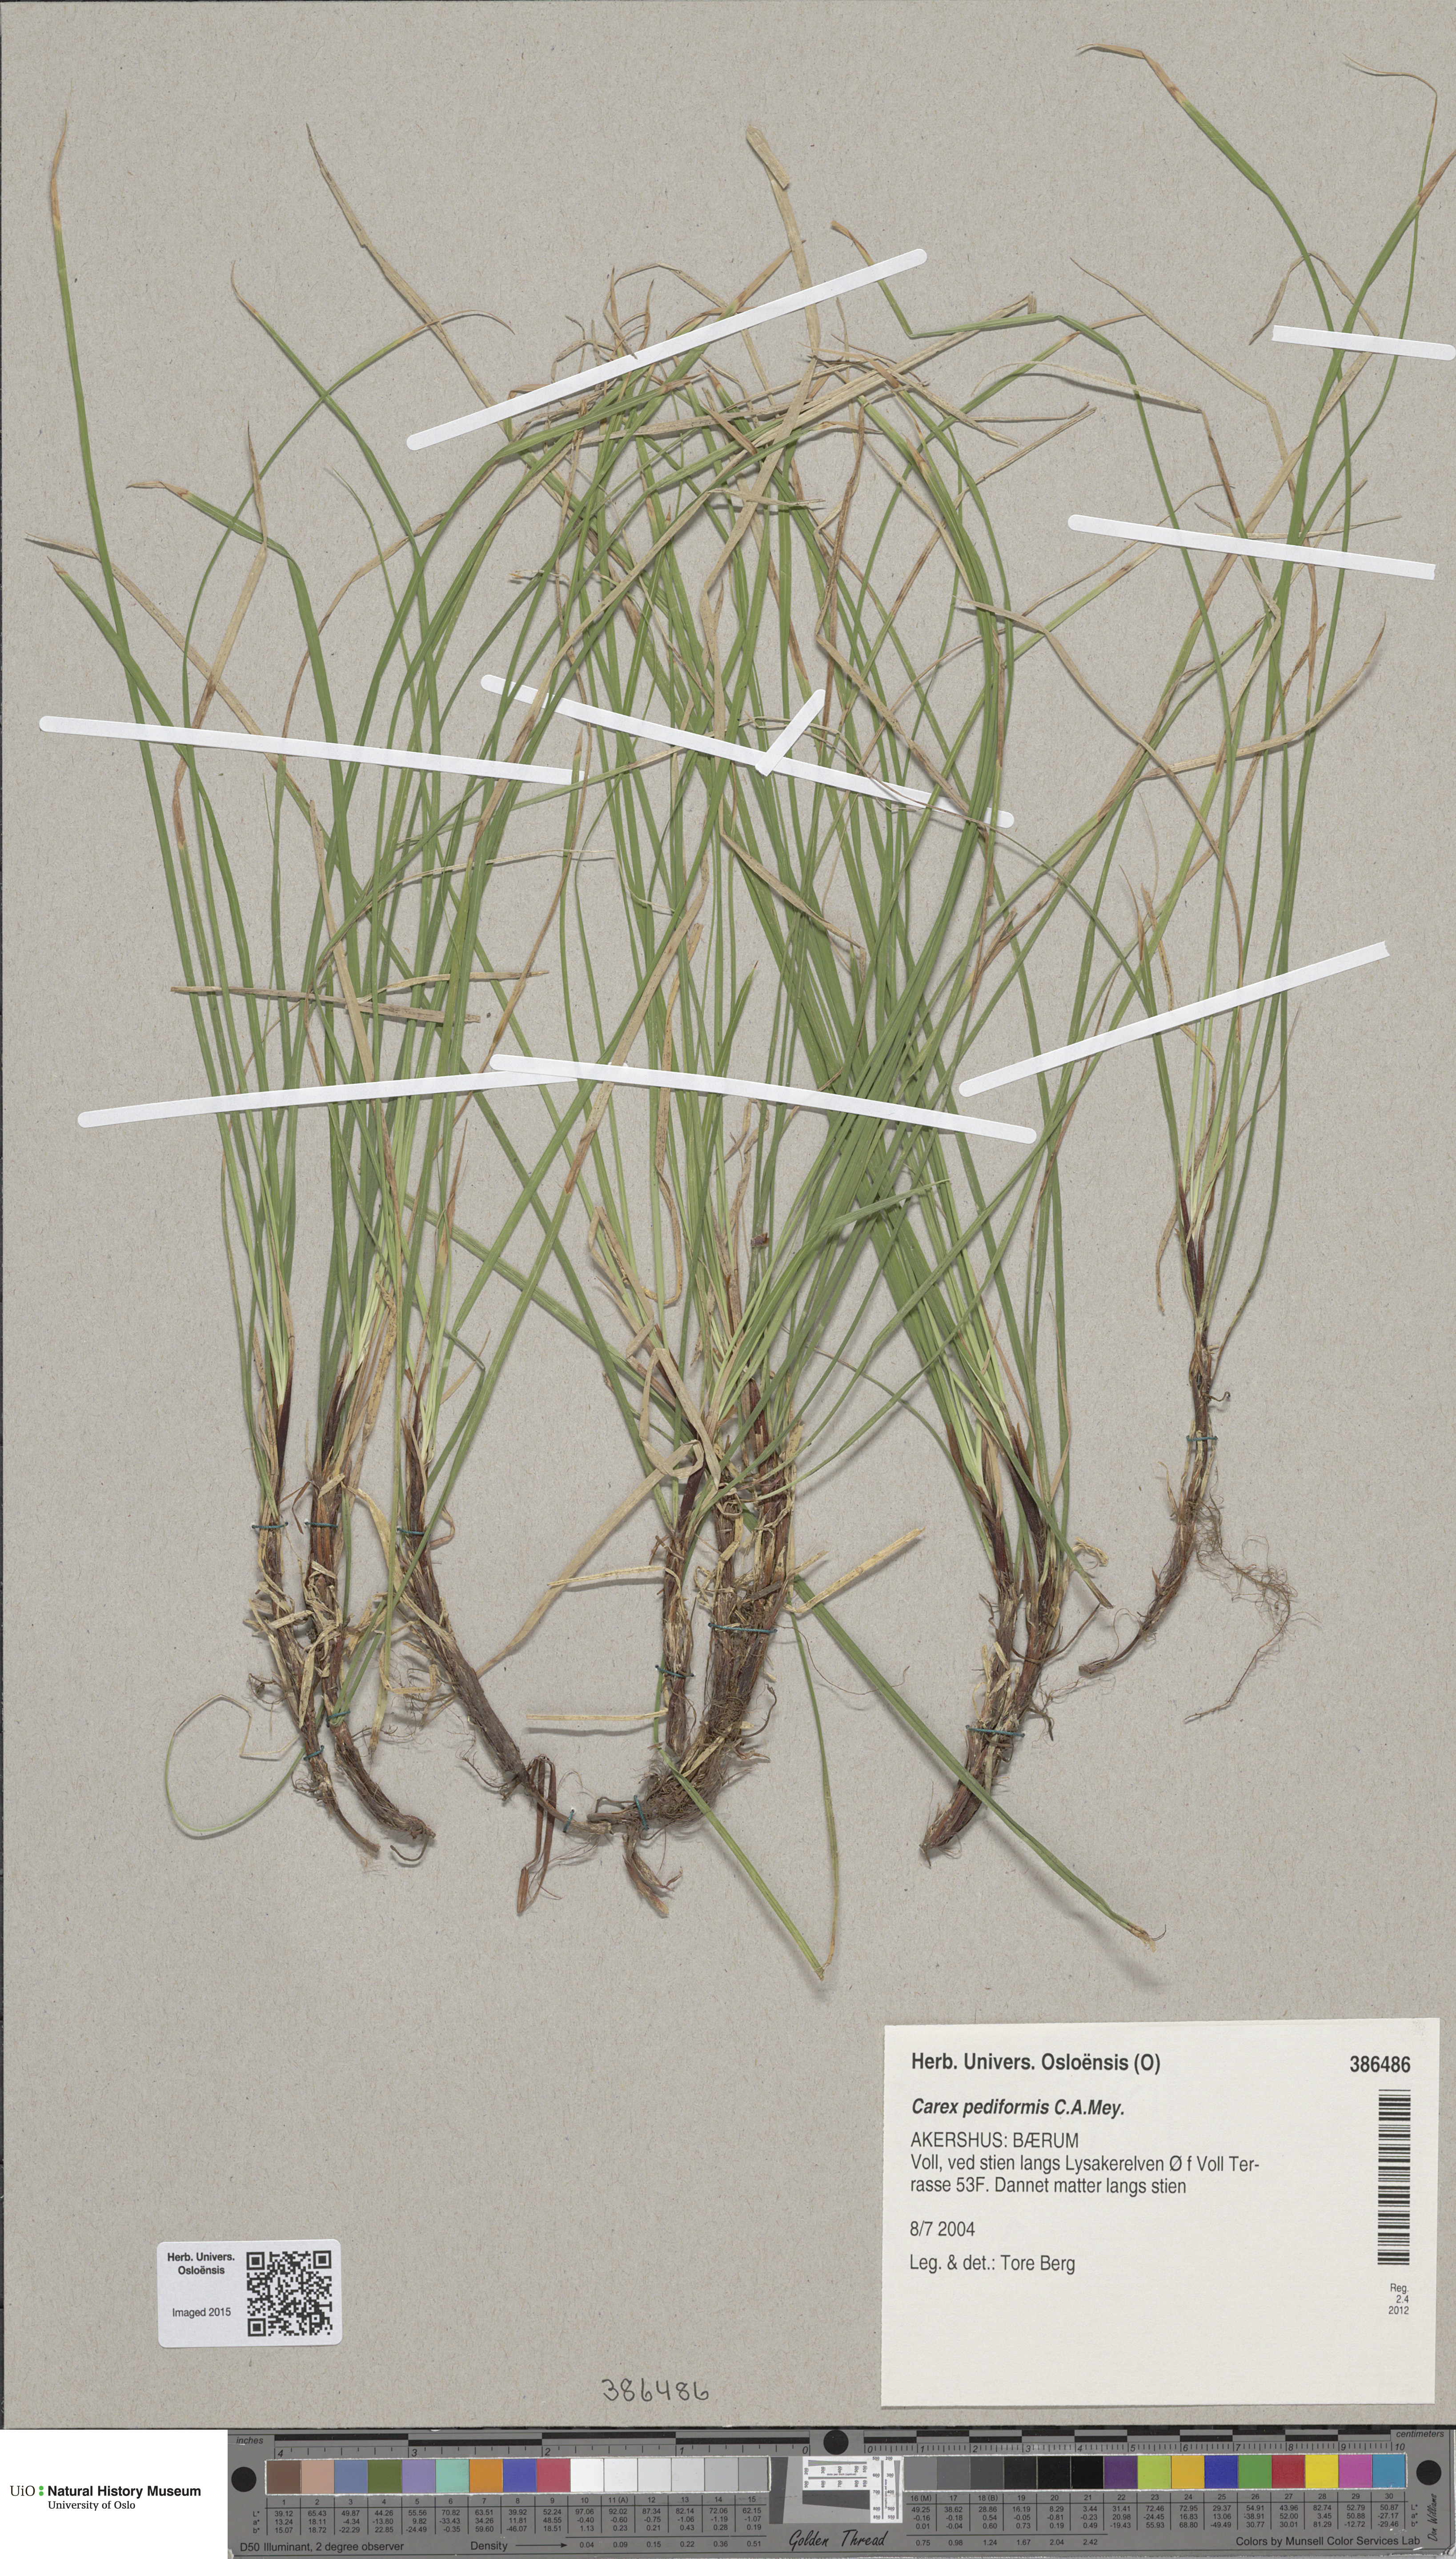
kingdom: Plantae
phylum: Tracheophyta
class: Liliopsida
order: Poales
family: Cyperaceae
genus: Carex
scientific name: Carex rhizina
